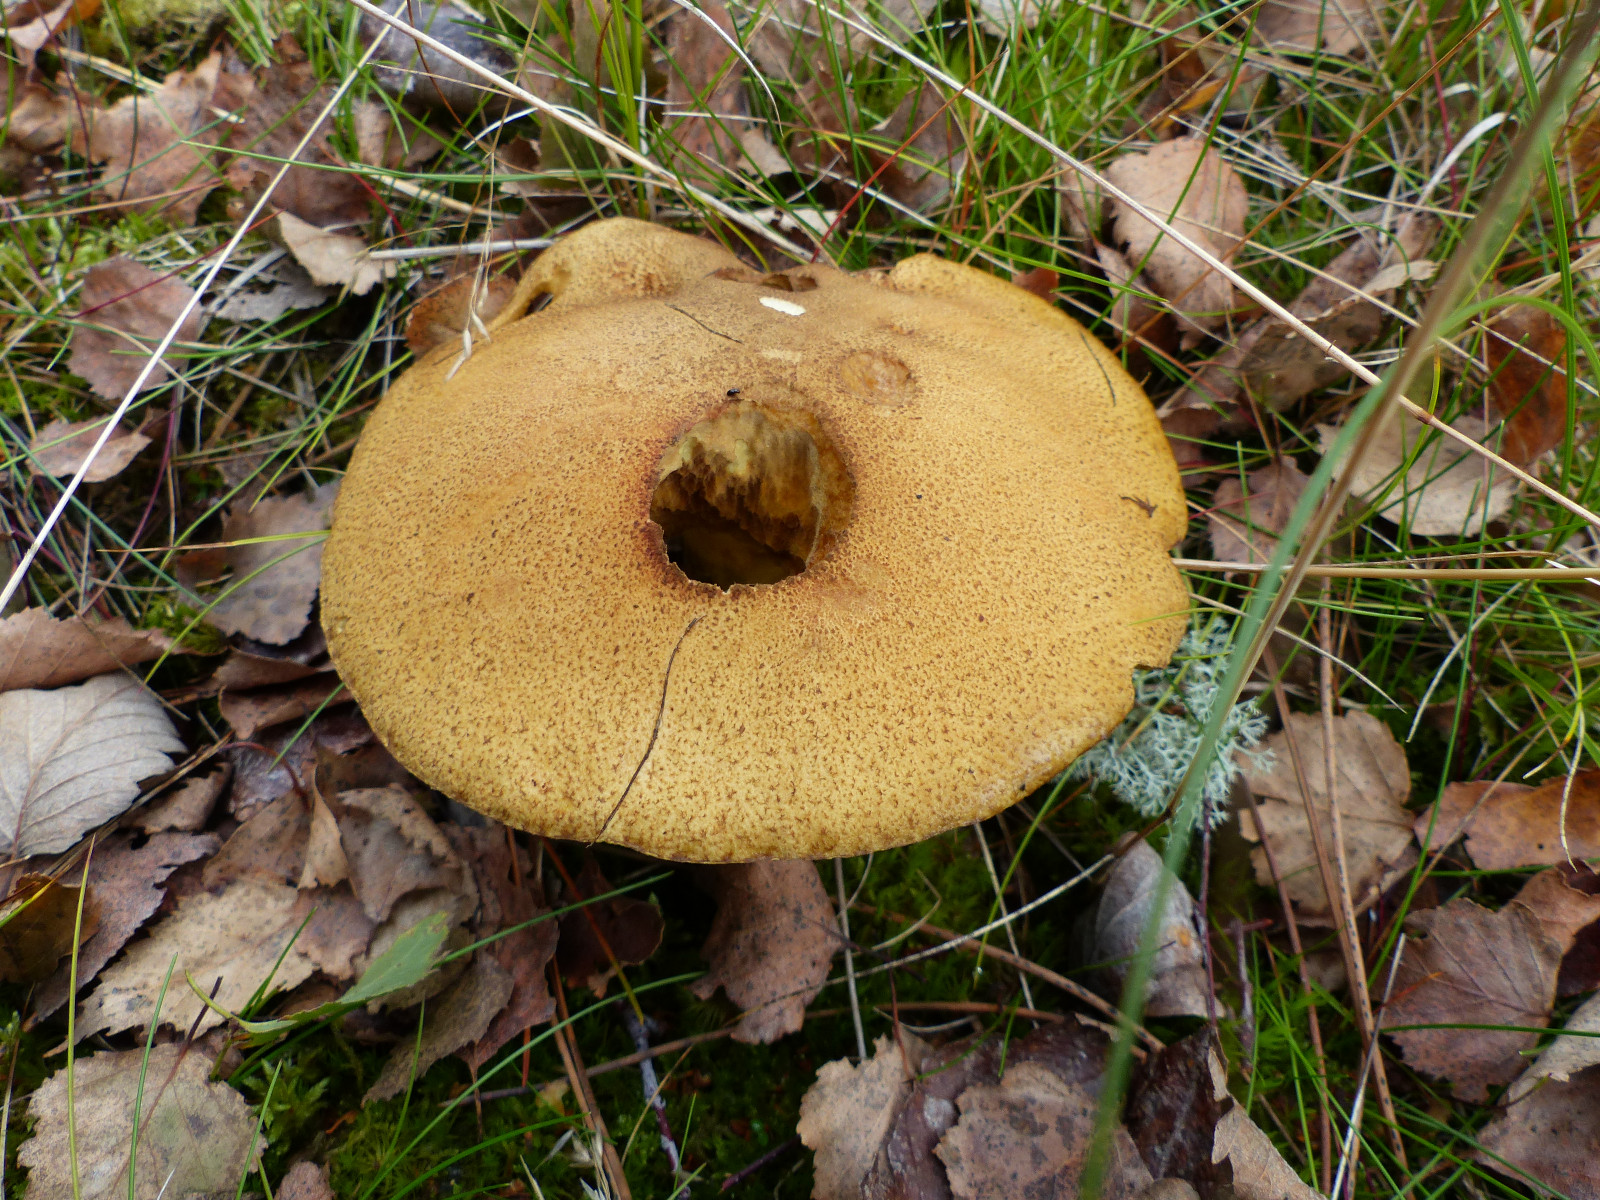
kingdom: Fungi
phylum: Basidiomycota
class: Agaricomycetes
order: Boletales
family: Suillaceae
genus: Suillus
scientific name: Suillus variegatus
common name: broget slimrørhat
